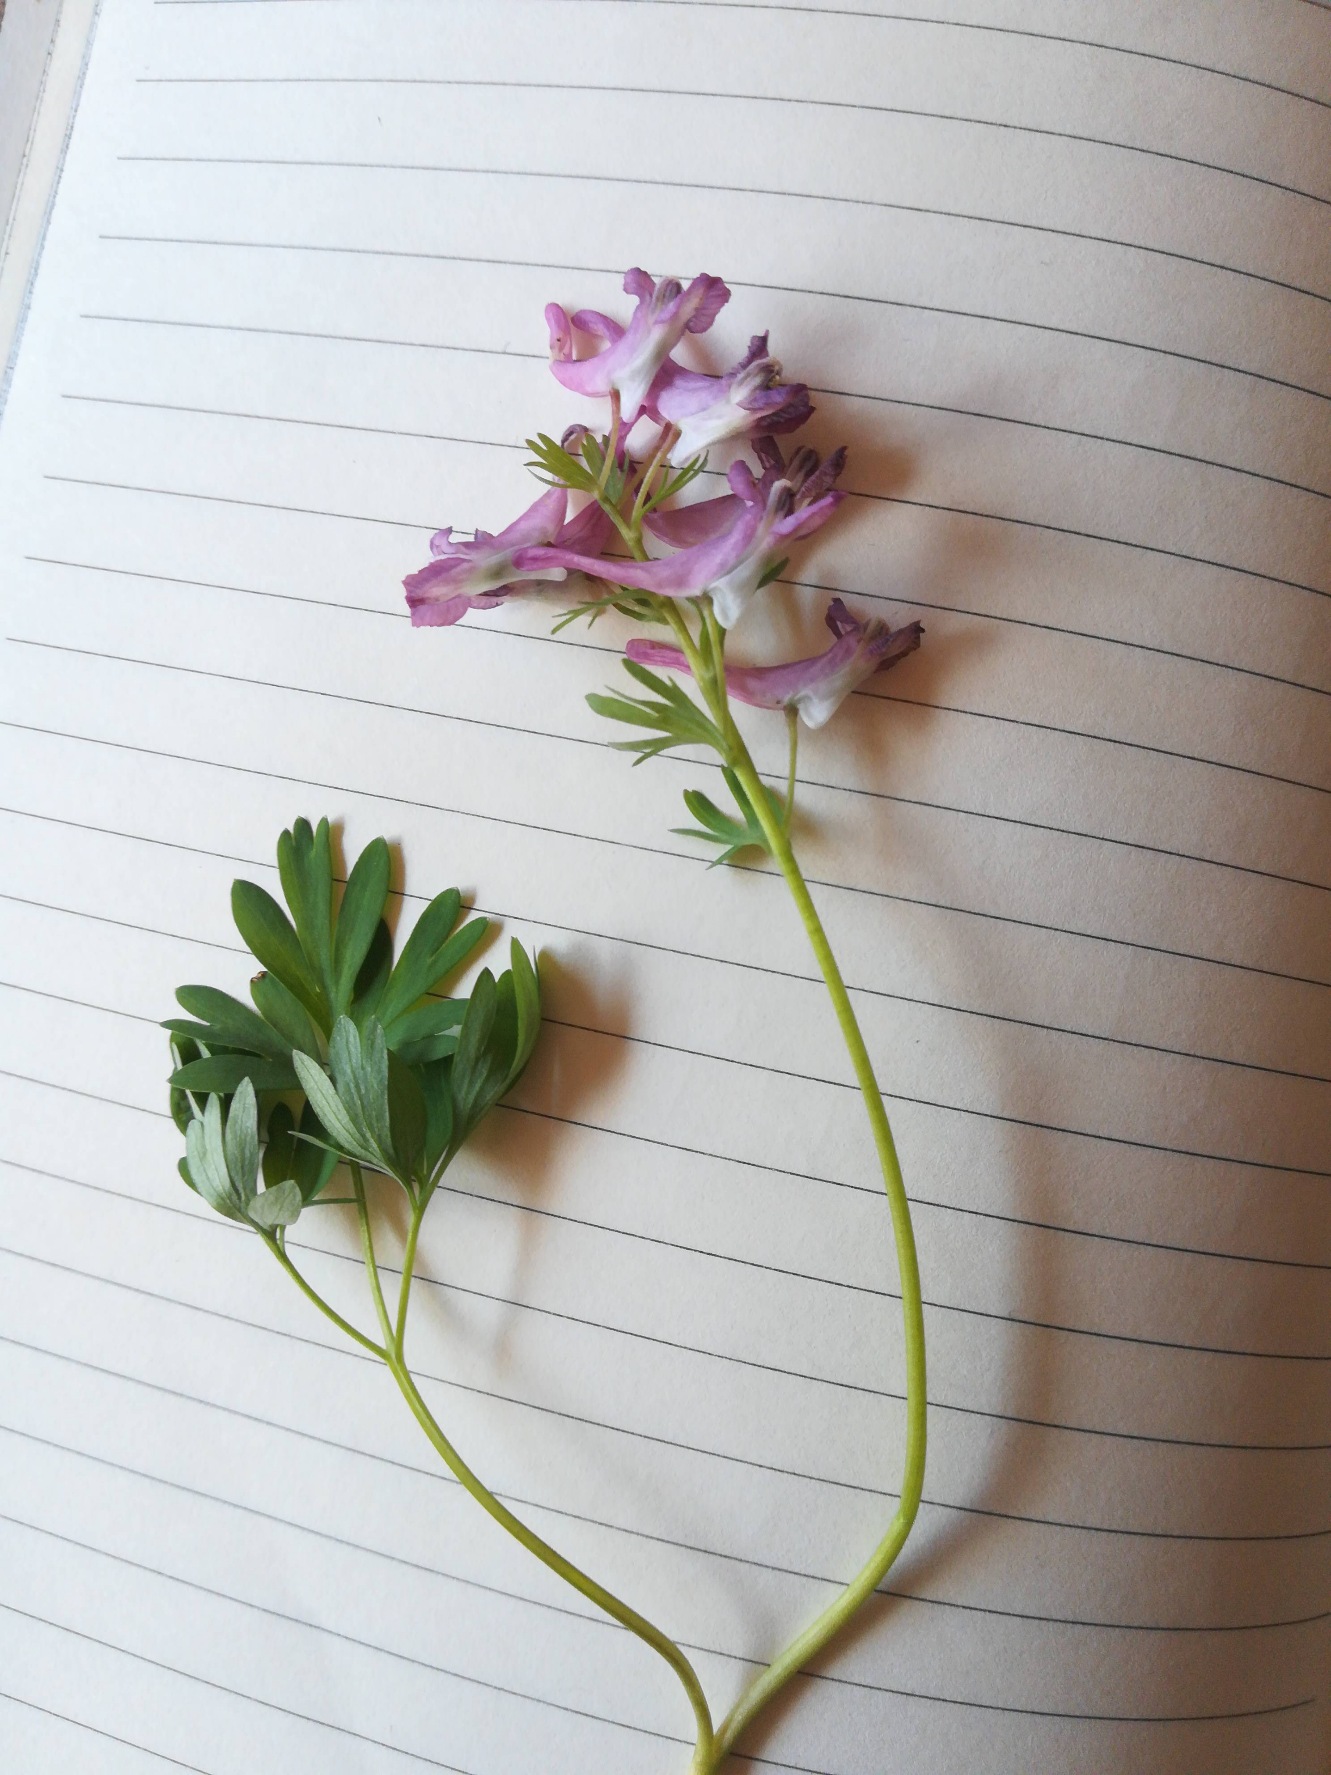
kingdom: Plantae
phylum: Tracheophyta
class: Magnoliopsida
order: Ranunculales
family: Papaveraceae
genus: Corydalis
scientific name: Corydalis solida
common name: Langstilket lærkespore
